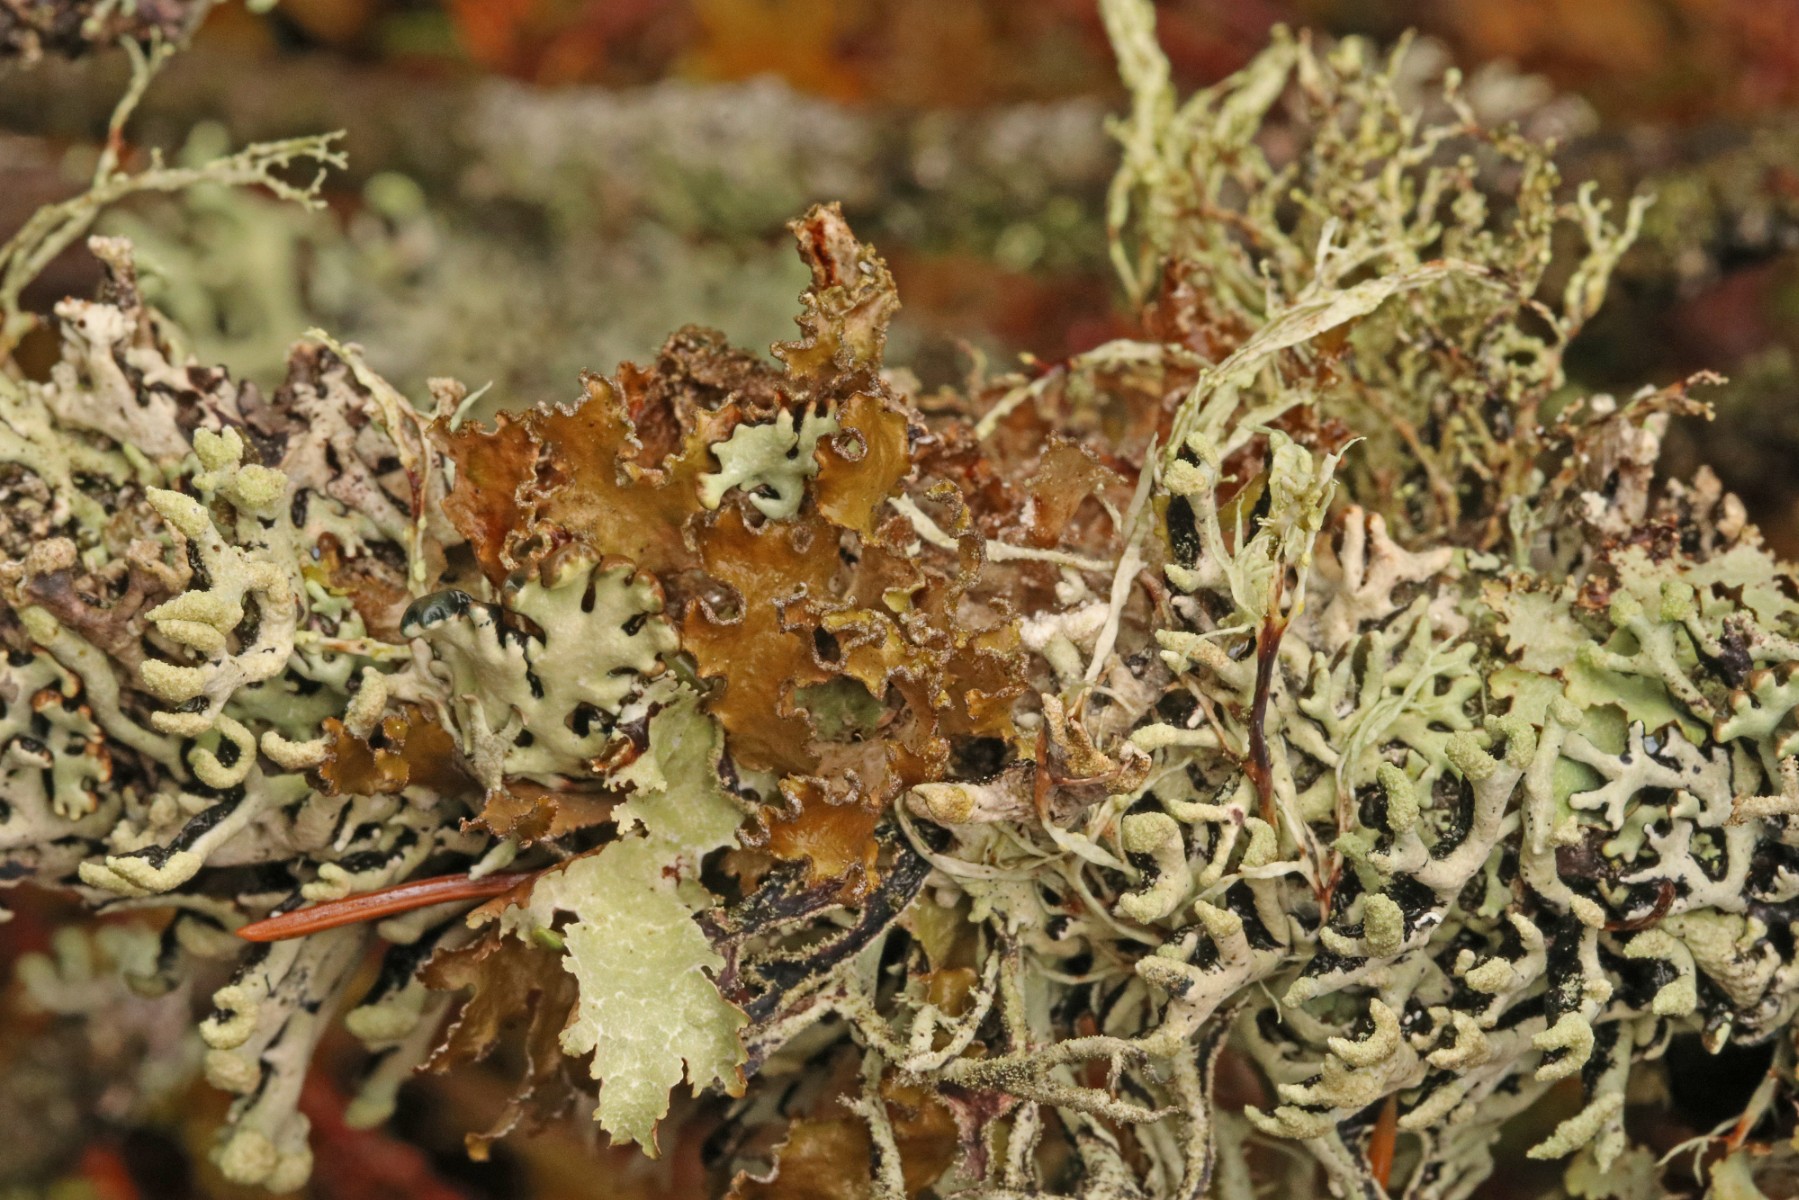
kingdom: Fungi
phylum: Ascomycota
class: Lecanoromycetes
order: Lecanorales
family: Parmeliaceae
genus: Nephromopsis
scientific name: Nephromopsis chlorophylla
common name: olivenbrun kruslav
